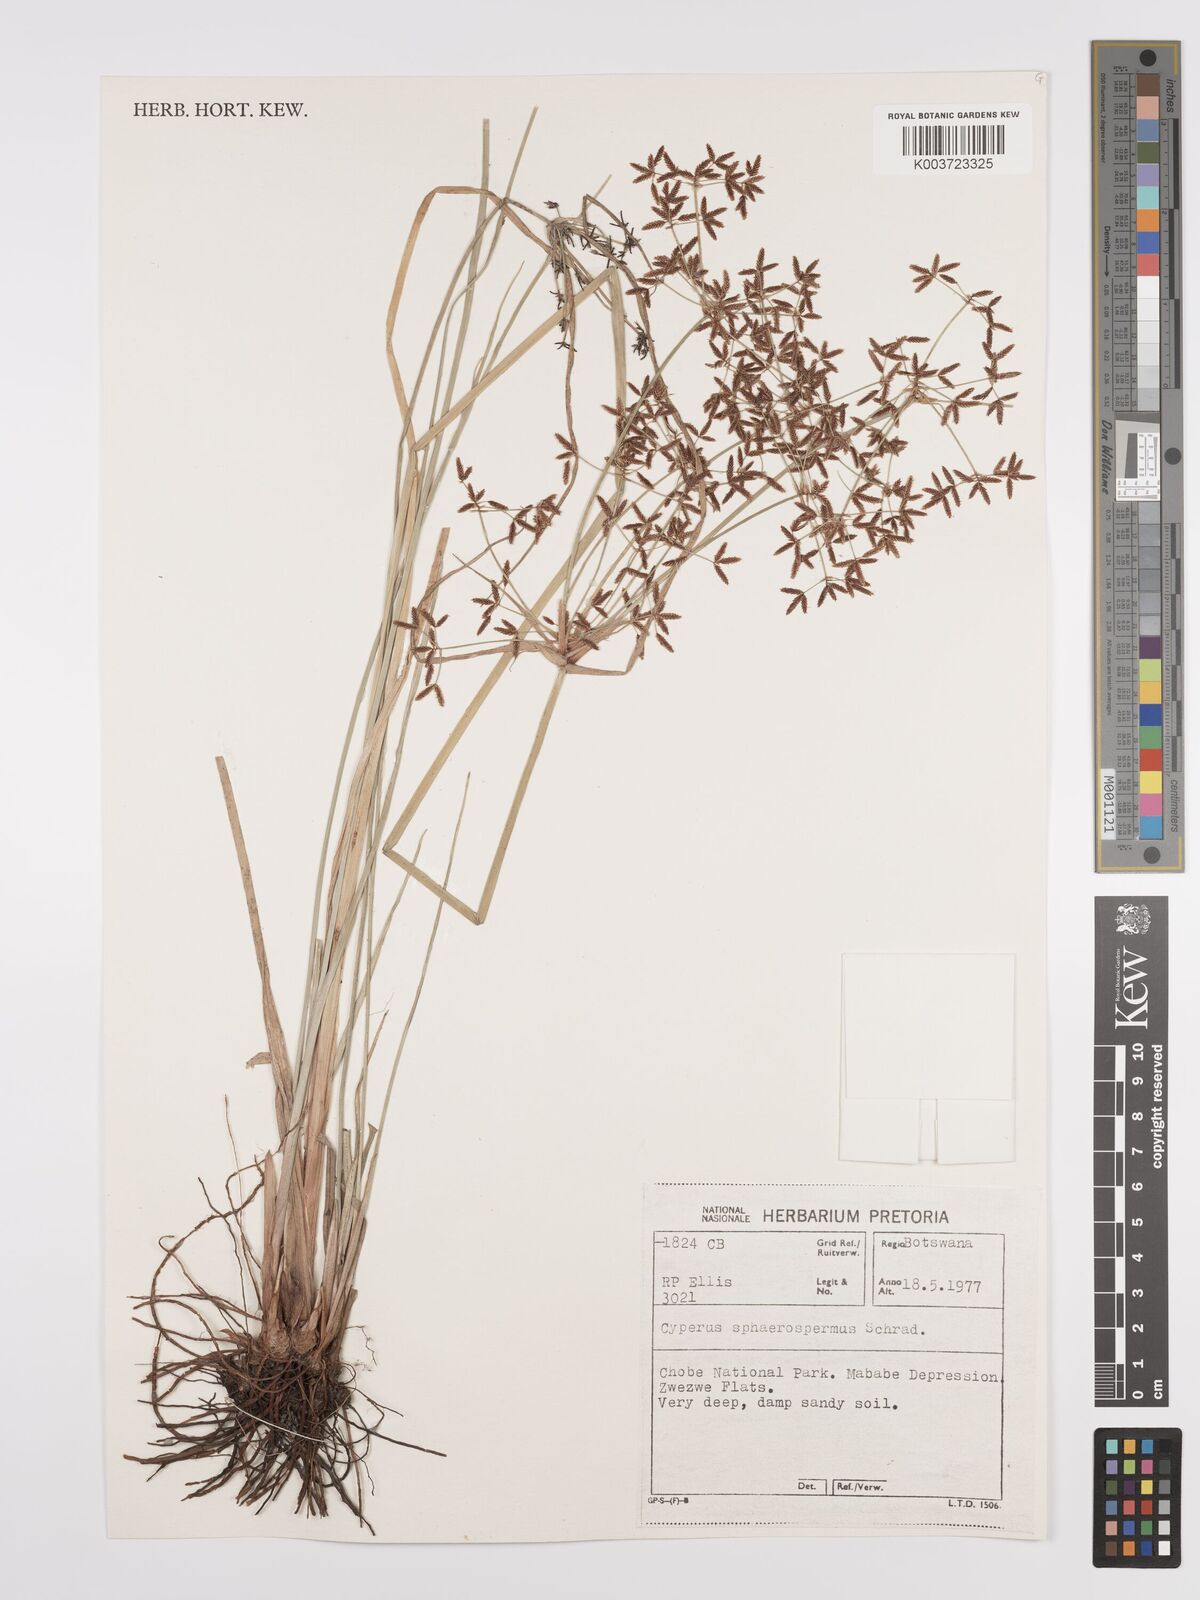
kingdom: Plantae
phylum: Tracheophyta
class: Liliopsida
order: Poales
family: Cyperaceae
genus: Cyperus
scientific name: Cyperus denudatus
